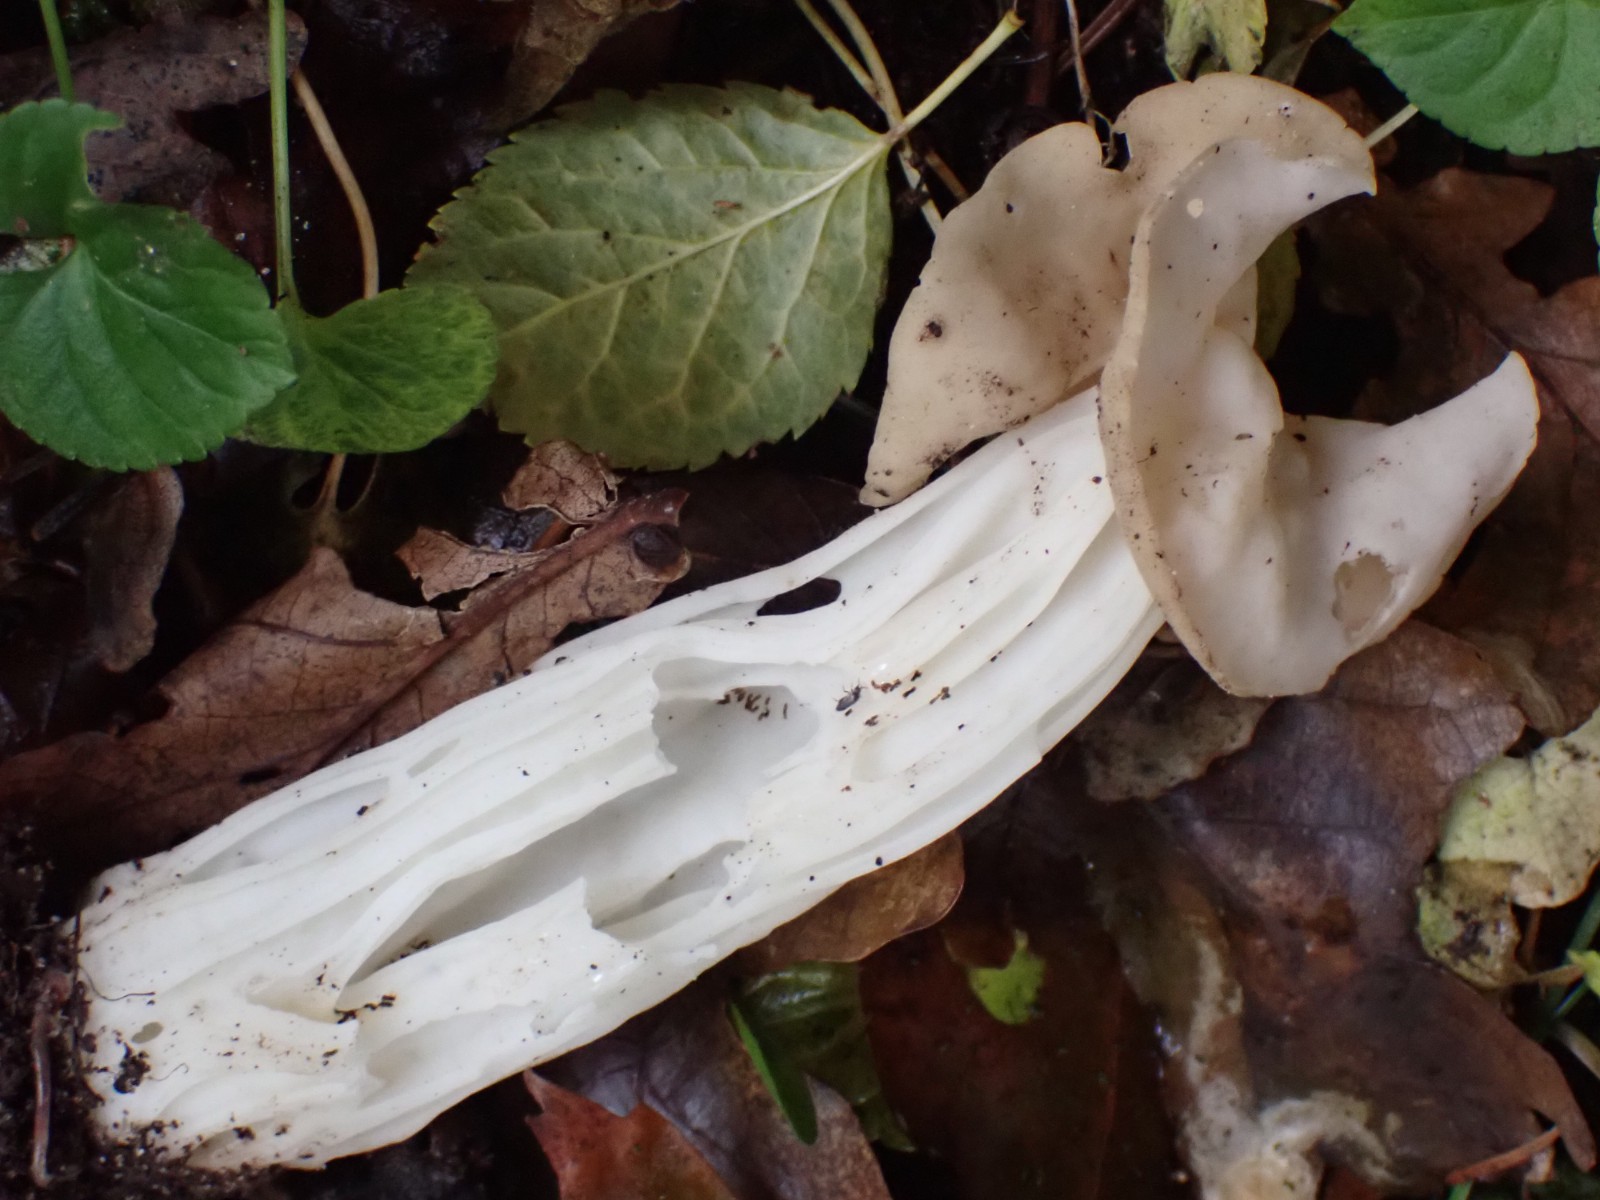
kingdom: Fungi
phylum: Ascomycota
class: Pezizomycetes
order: Pezizales
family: Helvellaceae
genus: Helvella
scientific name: Helvella crispa
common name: kruset foldhat
